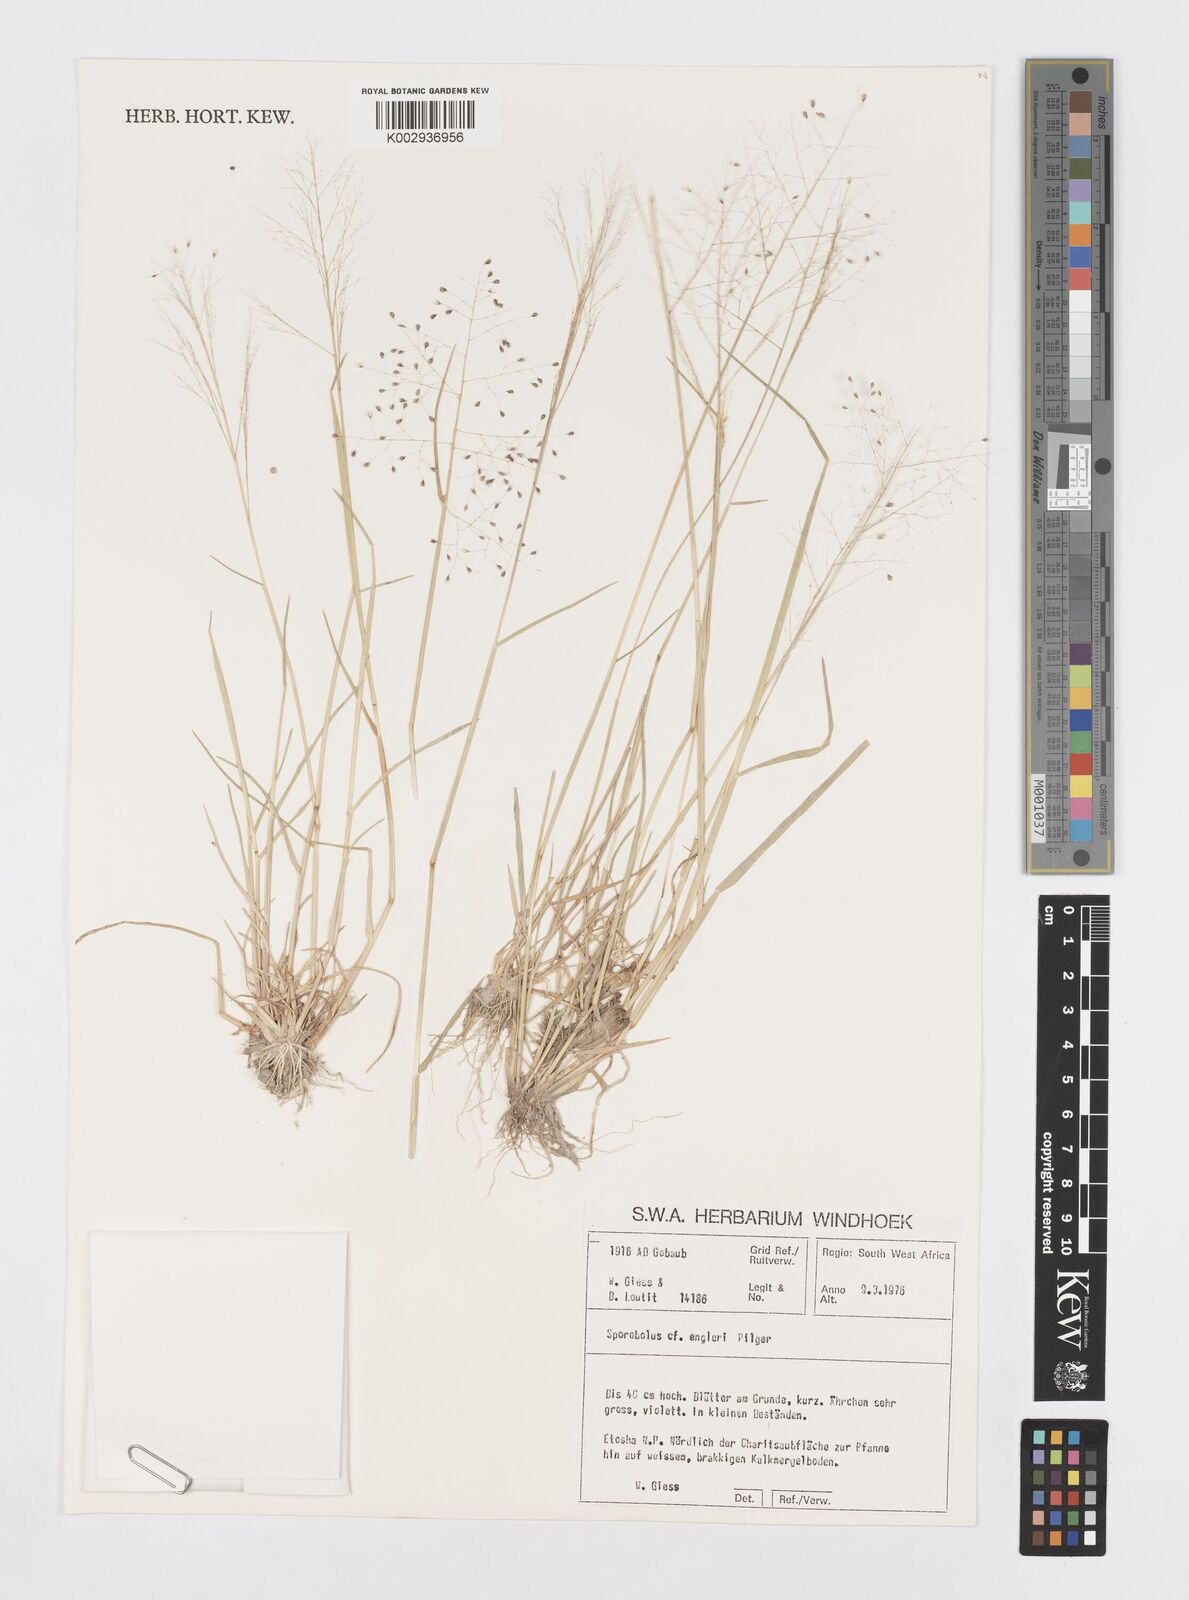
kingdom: Plantae
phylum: Tracheophyta
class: Liliopsida
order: Poales
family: Poaceae
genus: Sporobolus
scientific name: Sporobolus engleri
